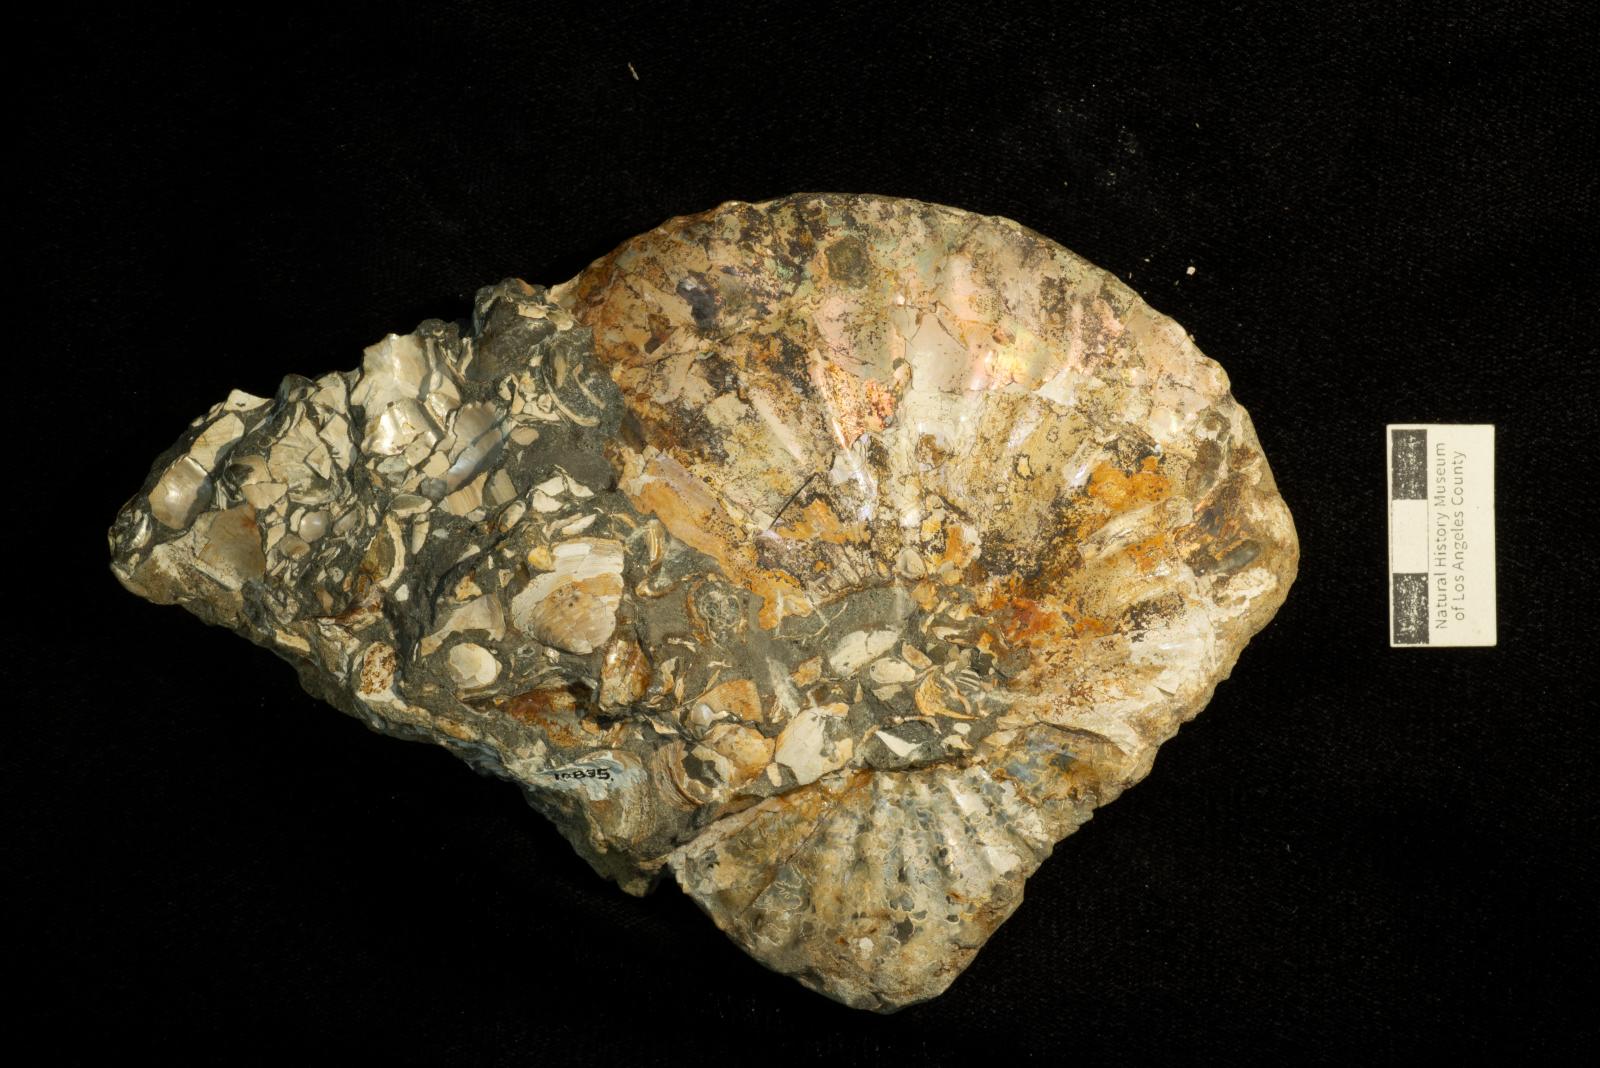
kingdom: Animalia
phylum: Mollusca
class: Cephalopoda
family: Collignoniceratidae
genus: Submortoniceras
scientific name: Submortoniceras
